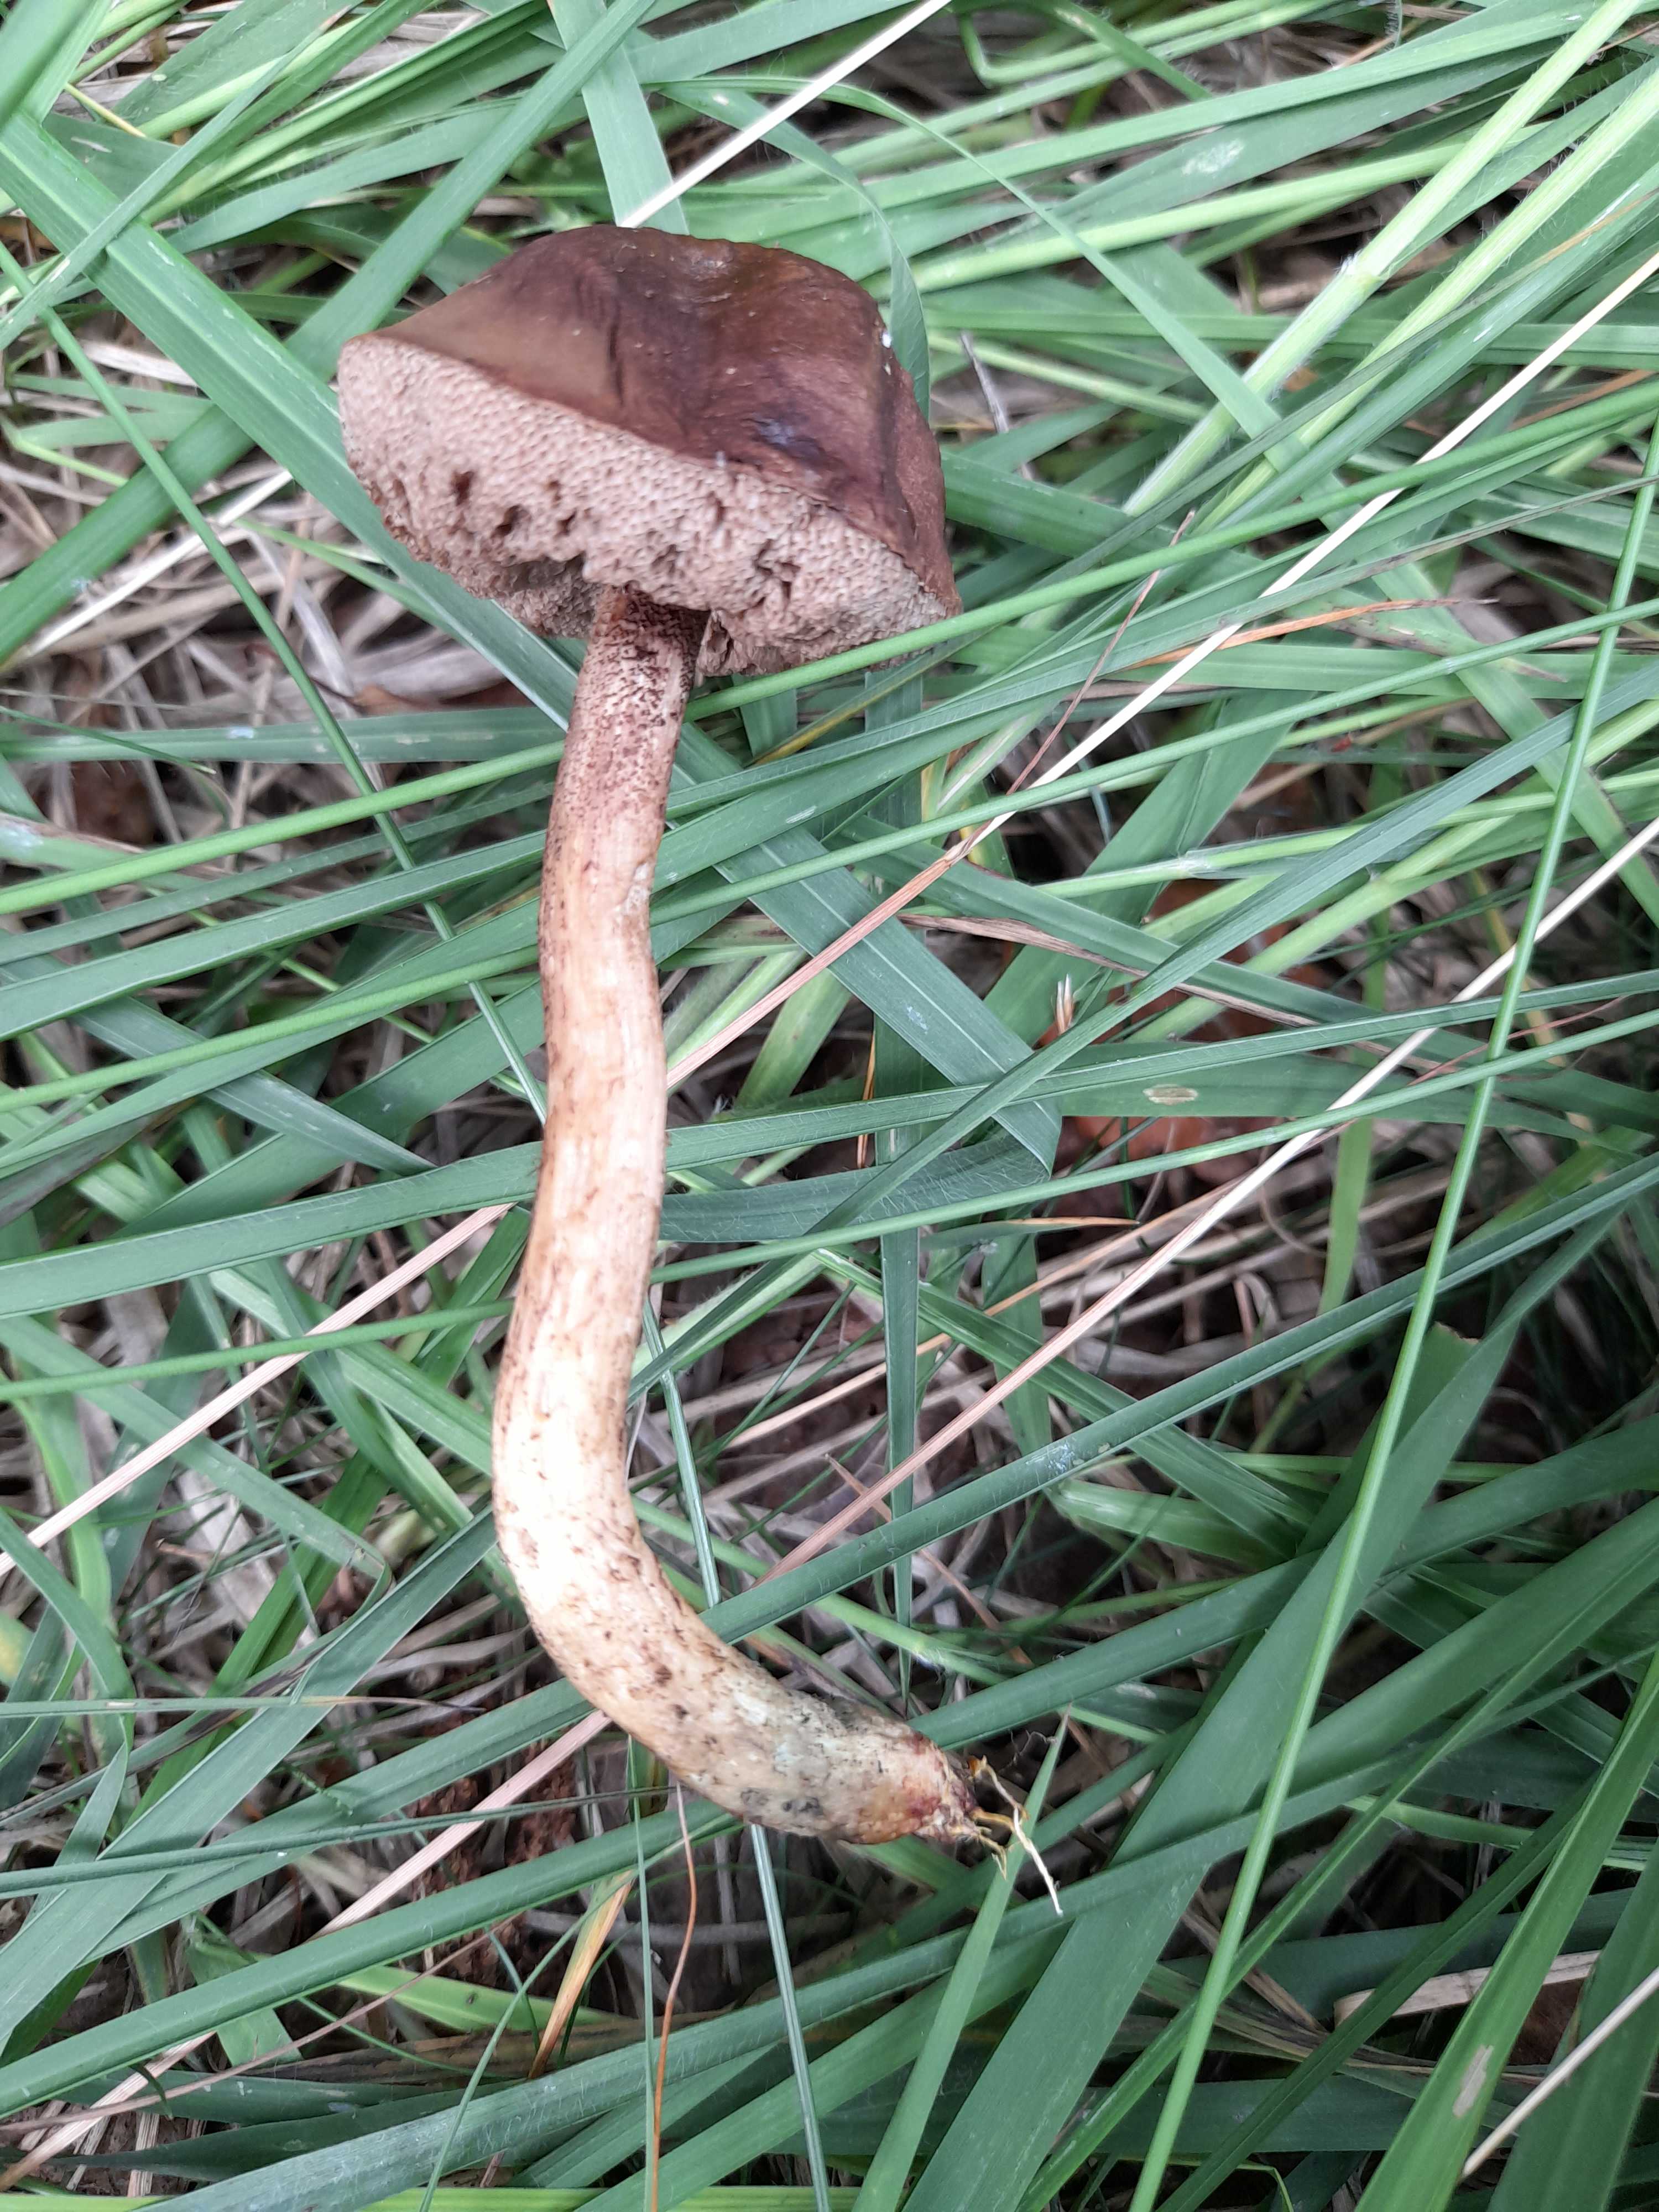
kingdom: Fungi
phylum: Basidiomycota
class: Agaricomycetes
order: Boletales
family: Boletaceae
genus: Leccinum
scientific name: Leccinum cyaneobasileucum
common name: almindelig skælrørhat
